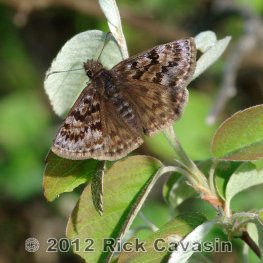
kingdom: Animalia
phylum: Arthropoda
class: Insecta
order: Lepidoptera
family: Hesperiidae
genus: Erynnis
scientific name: Erynnis martialis
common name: Mottled Duskywing
